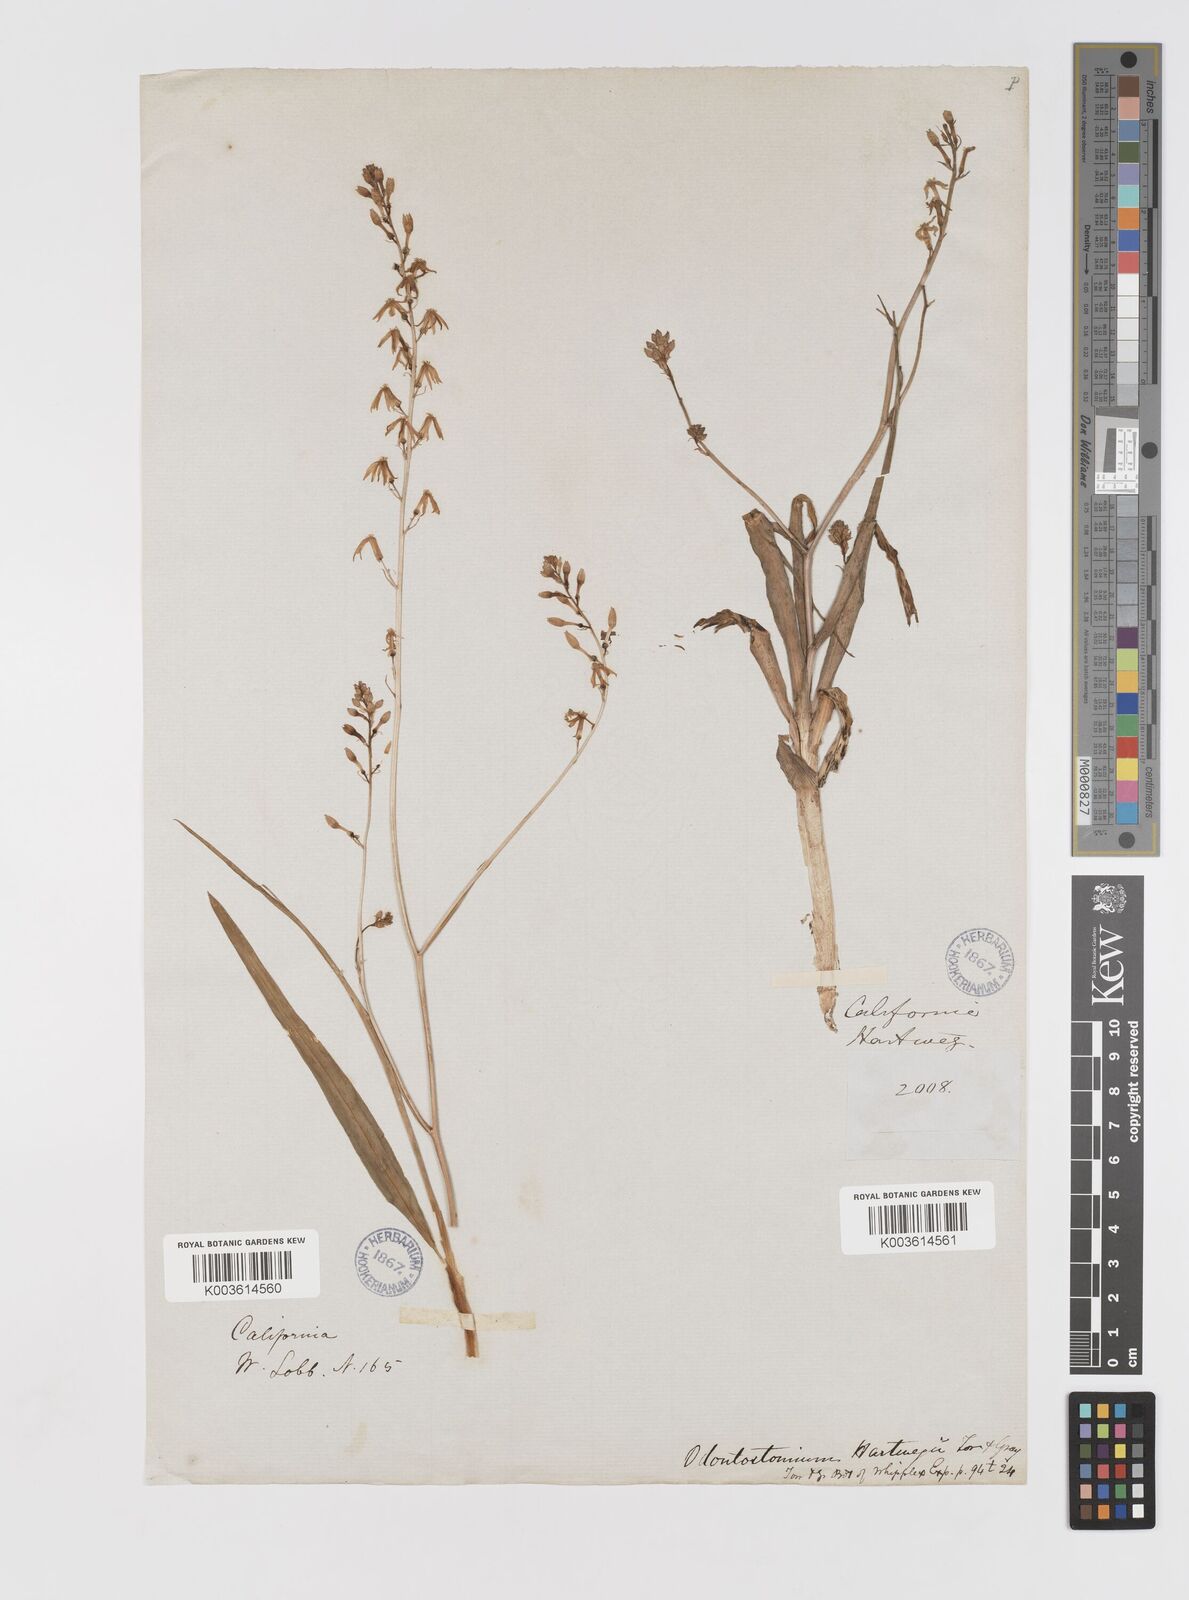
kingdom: Plantae
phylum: Tracheophyta
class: Liliopsida
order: Asparagales
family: Tecophilaeaceae
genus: Odontostomum
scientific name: Odontostomum hartwegii
